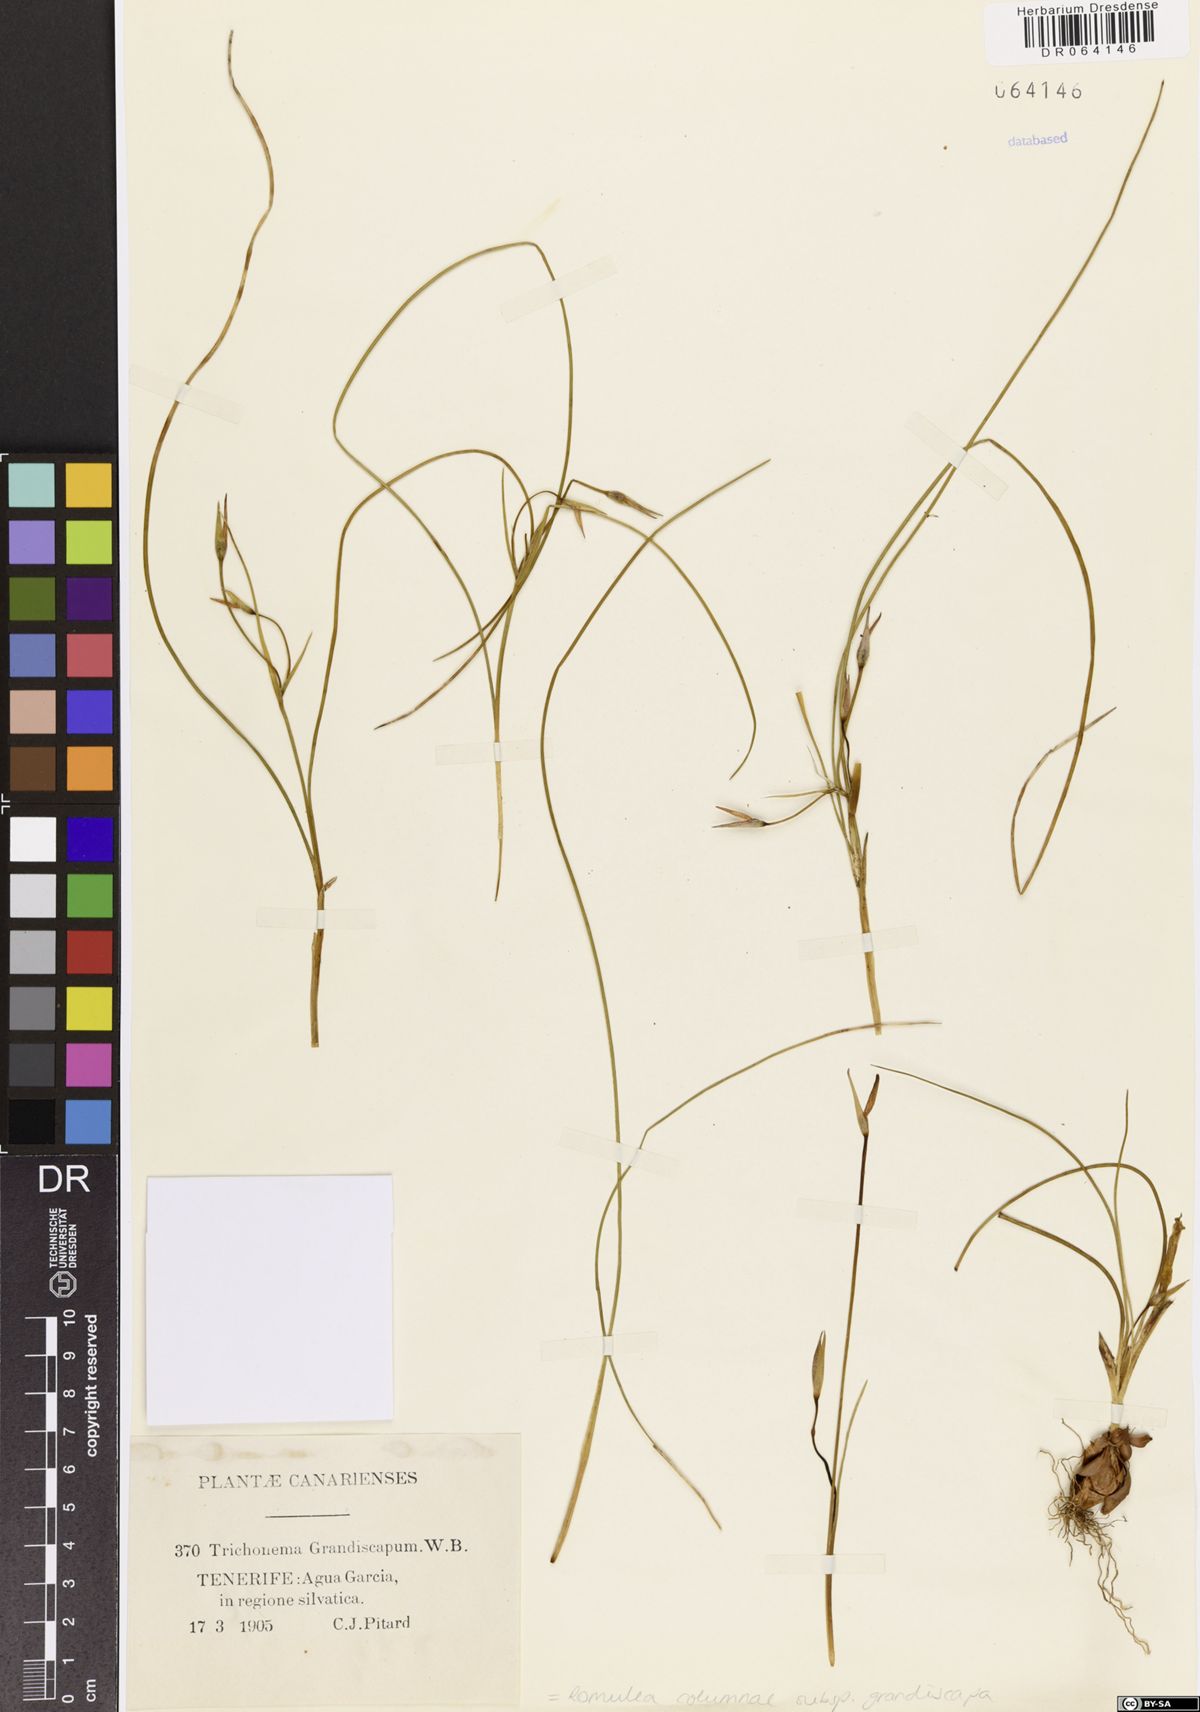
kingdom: Plantae
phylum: Tracheophyta
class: Liliopsida
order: Asparagales
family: Iridaceae
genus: Romulea
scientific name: Romulea columnae
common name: Sand-crocus
